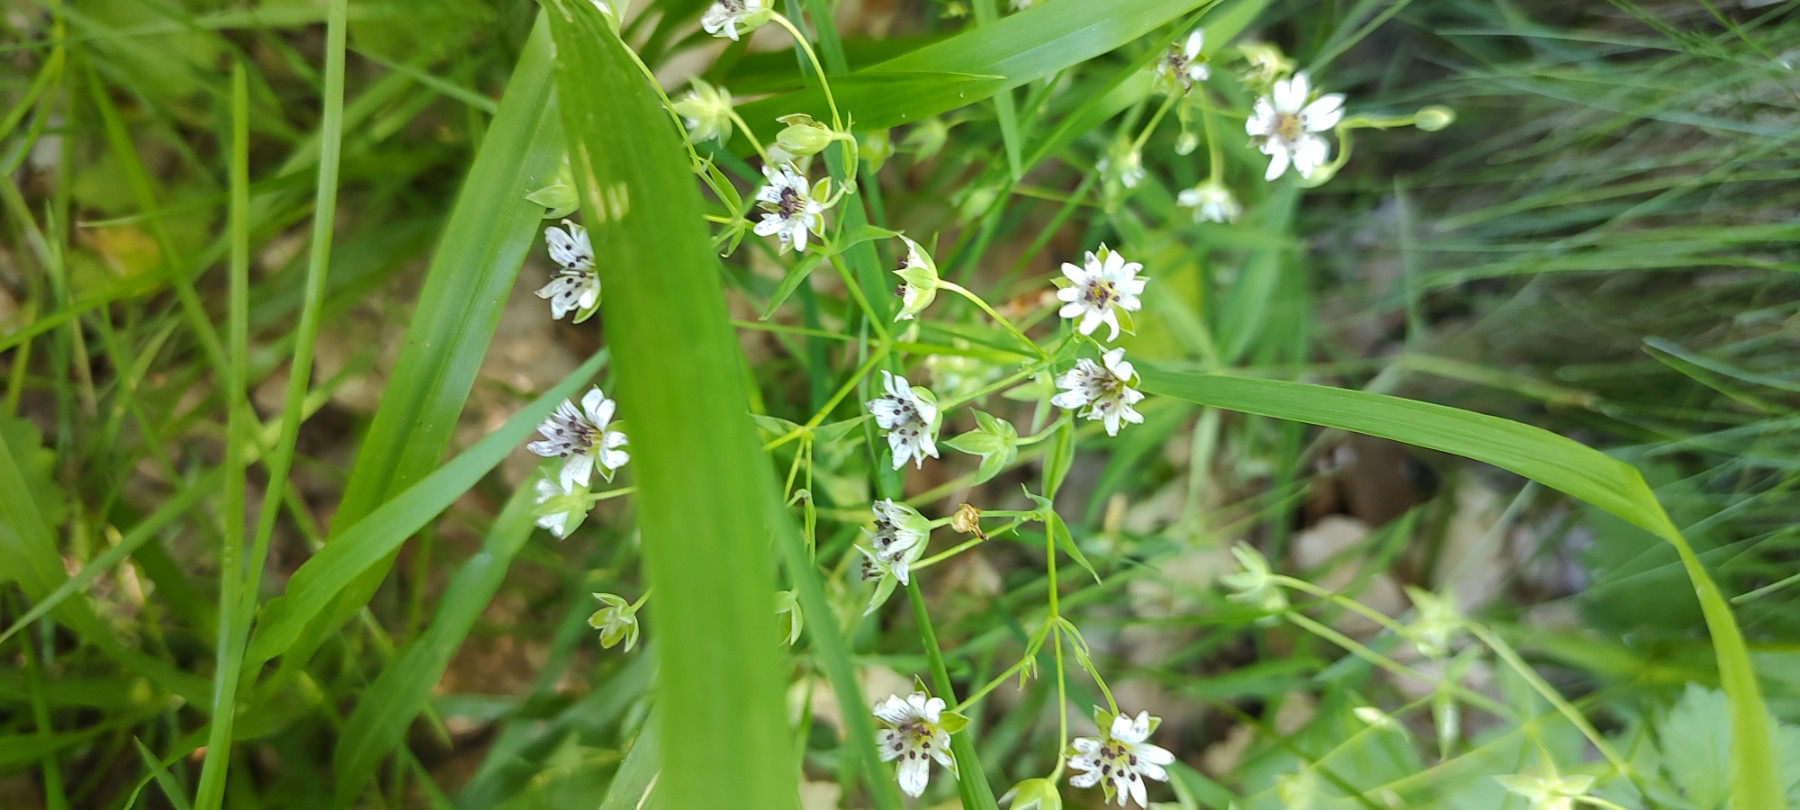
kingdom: Fungi
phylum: Basidiomycota
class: Microbotryomycetes
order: Microbotryales
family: Microbotryaceae
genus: Microbotryum
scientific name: Microbotryum stellariae
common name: fladstjerne-støvbladrust
